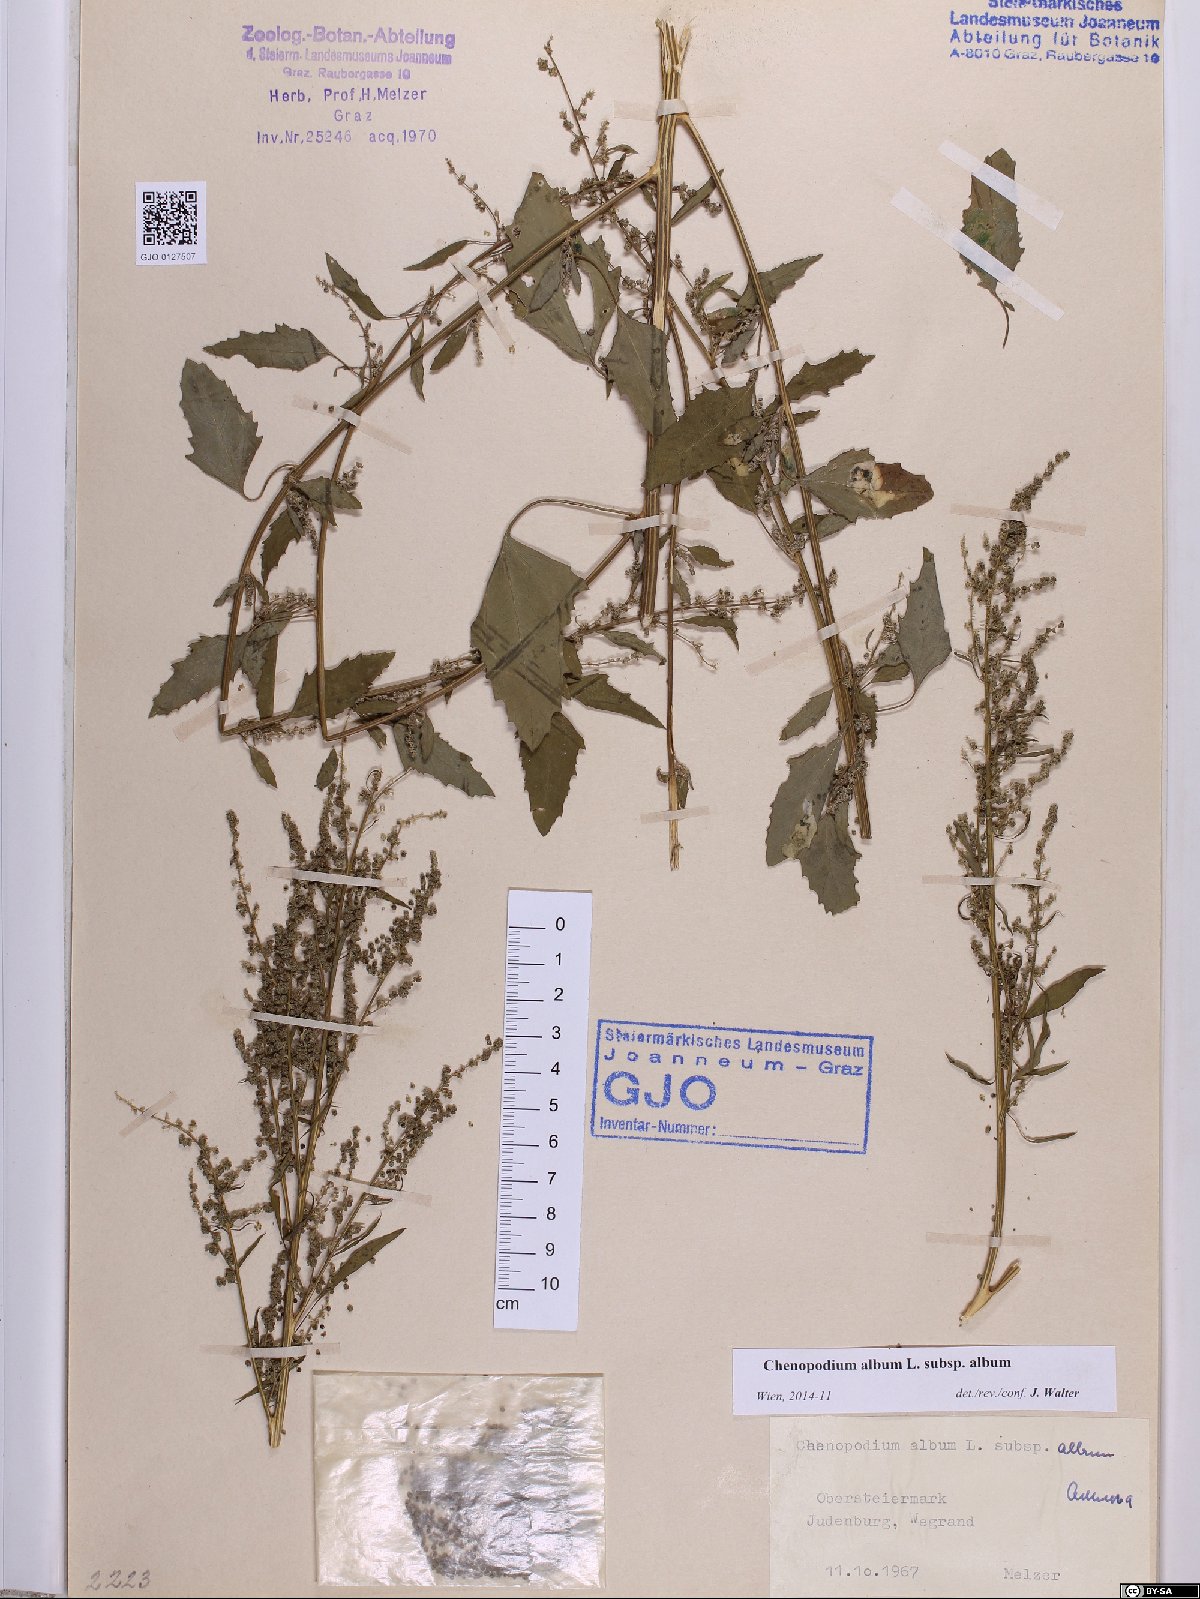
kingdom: Plantae
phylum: Tracheophyta
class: Magnoliopsida
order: Caryophyllales
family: Amaranthaceae
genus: Chenopodium
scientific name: Chenopodium album
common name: Fat-hen
